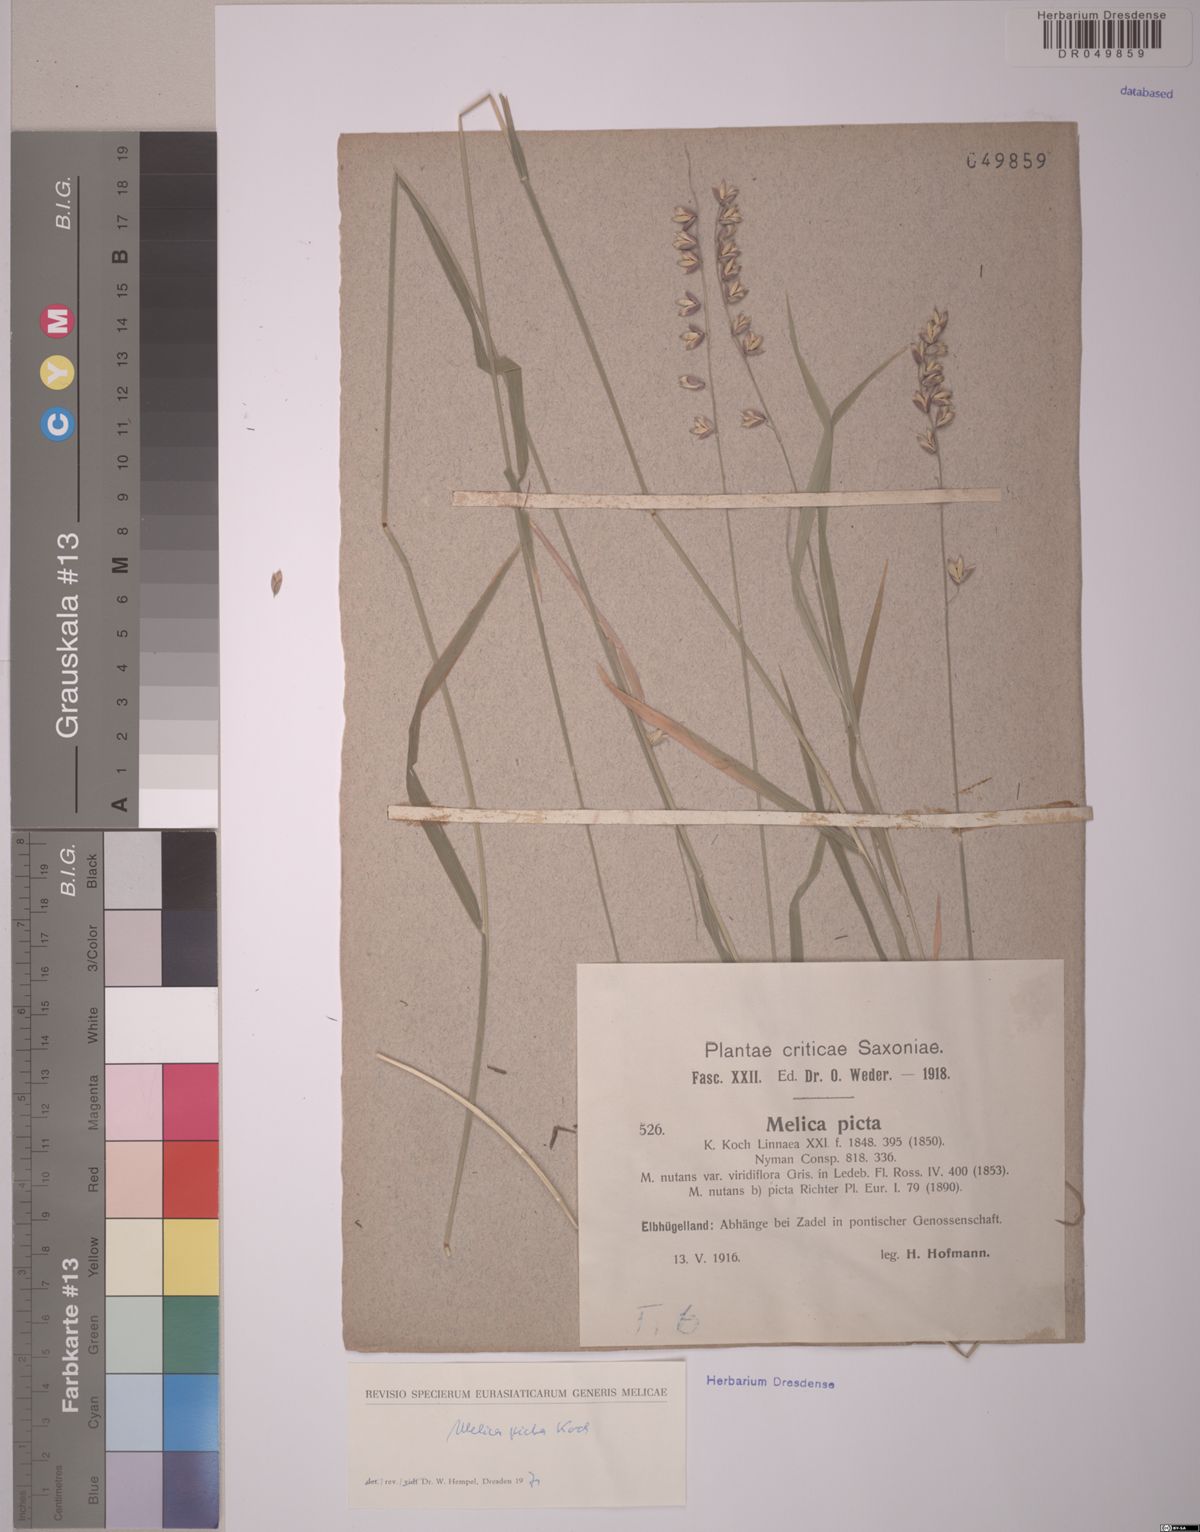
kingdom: Plantae
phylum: Tracheophyta
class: Liliopsida
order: Poales
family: Poaceae
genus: Melica
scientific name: Melica picta
